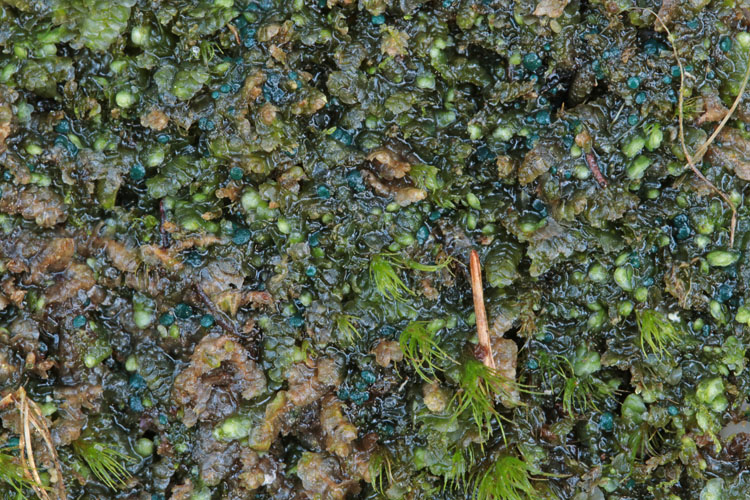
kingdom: Fungi
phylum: Ascomycota
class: Leotiomycetes
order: Leotiales
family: Mniaeciaceae
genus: Mniaecia
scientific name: Mniaecia jungermanniae
